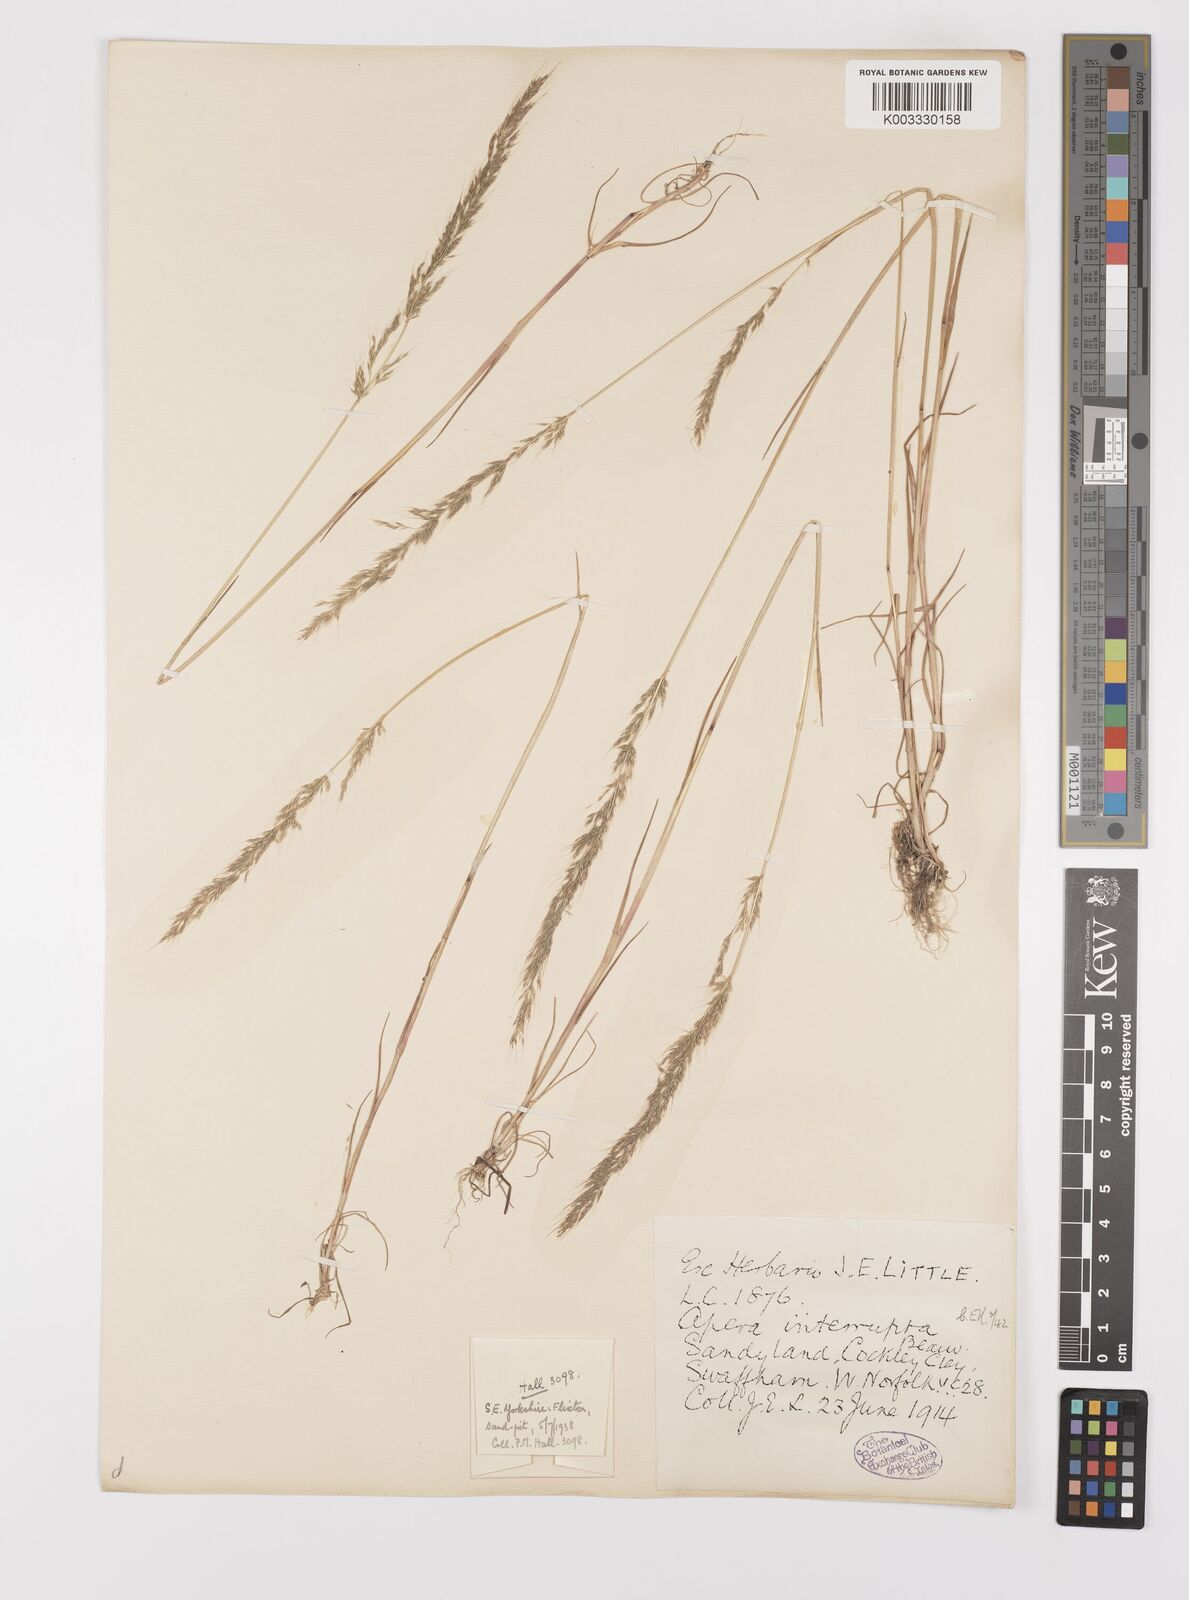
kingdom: Plantae
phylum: Tracheophyta
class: Liliopsida
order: Poales
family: Poaceae
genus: Apera
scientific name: Apera interrupta
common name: Dense silky-bent
